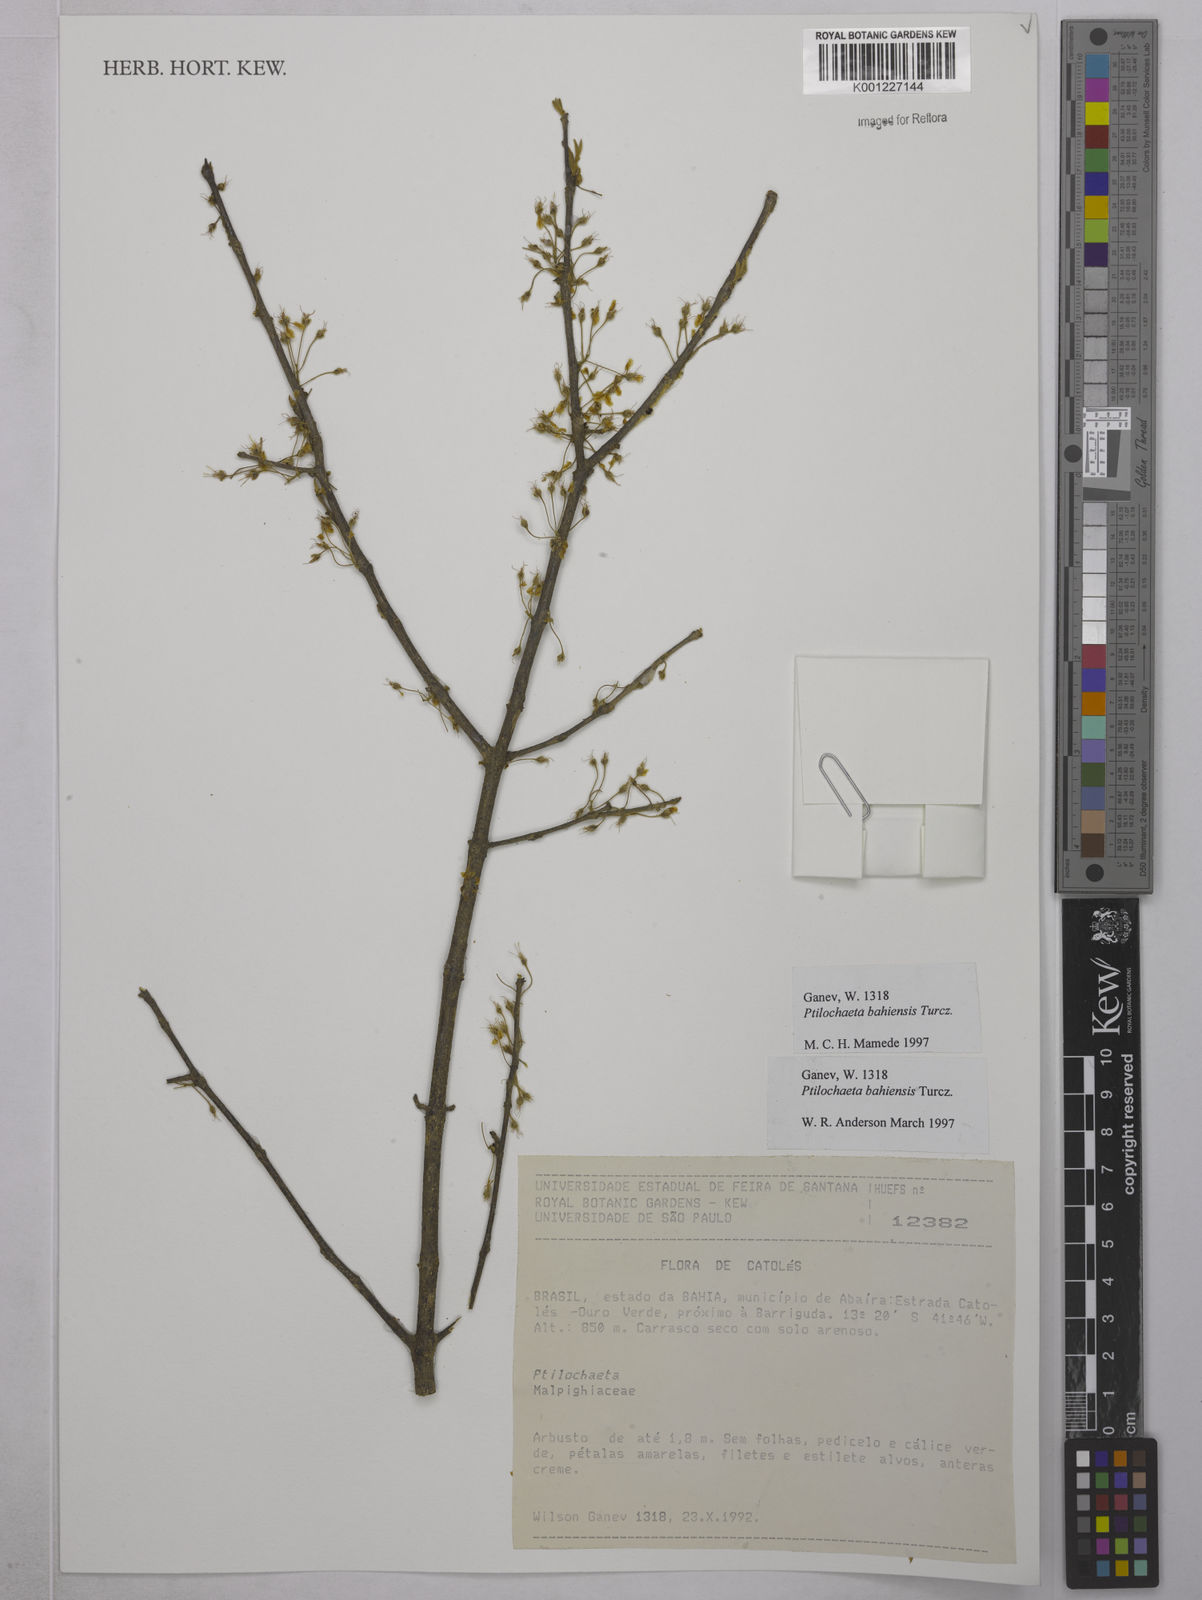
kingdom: Plantae
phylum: Tracheophyta
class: Magnoliopsida
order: Malpighiales
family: Malpighiaceae
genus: Ptilochaeta
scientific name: Ptilochaeta bahiensis
